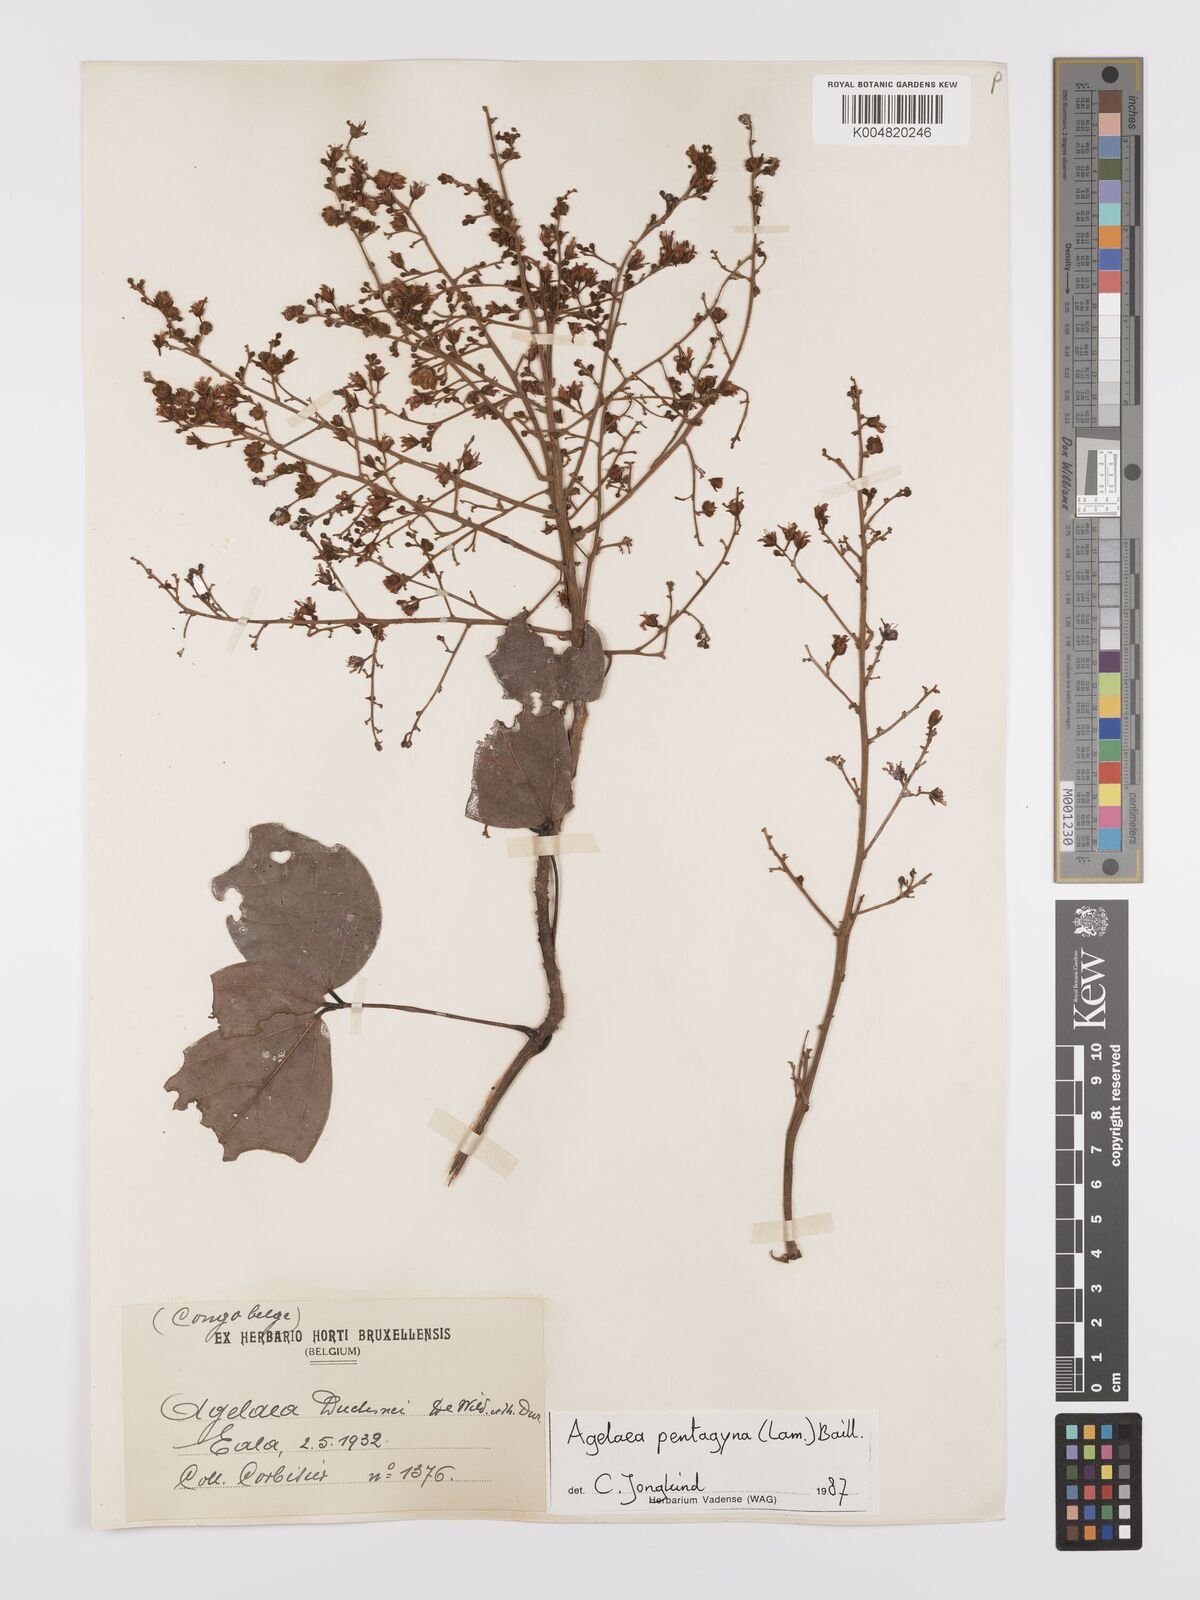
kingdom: Plantae
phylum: Tracheophyta
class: Magnoliopsida
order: Oxalidales
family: Connaraceae
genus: Agelaea
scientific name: Agelaea pentagyna
